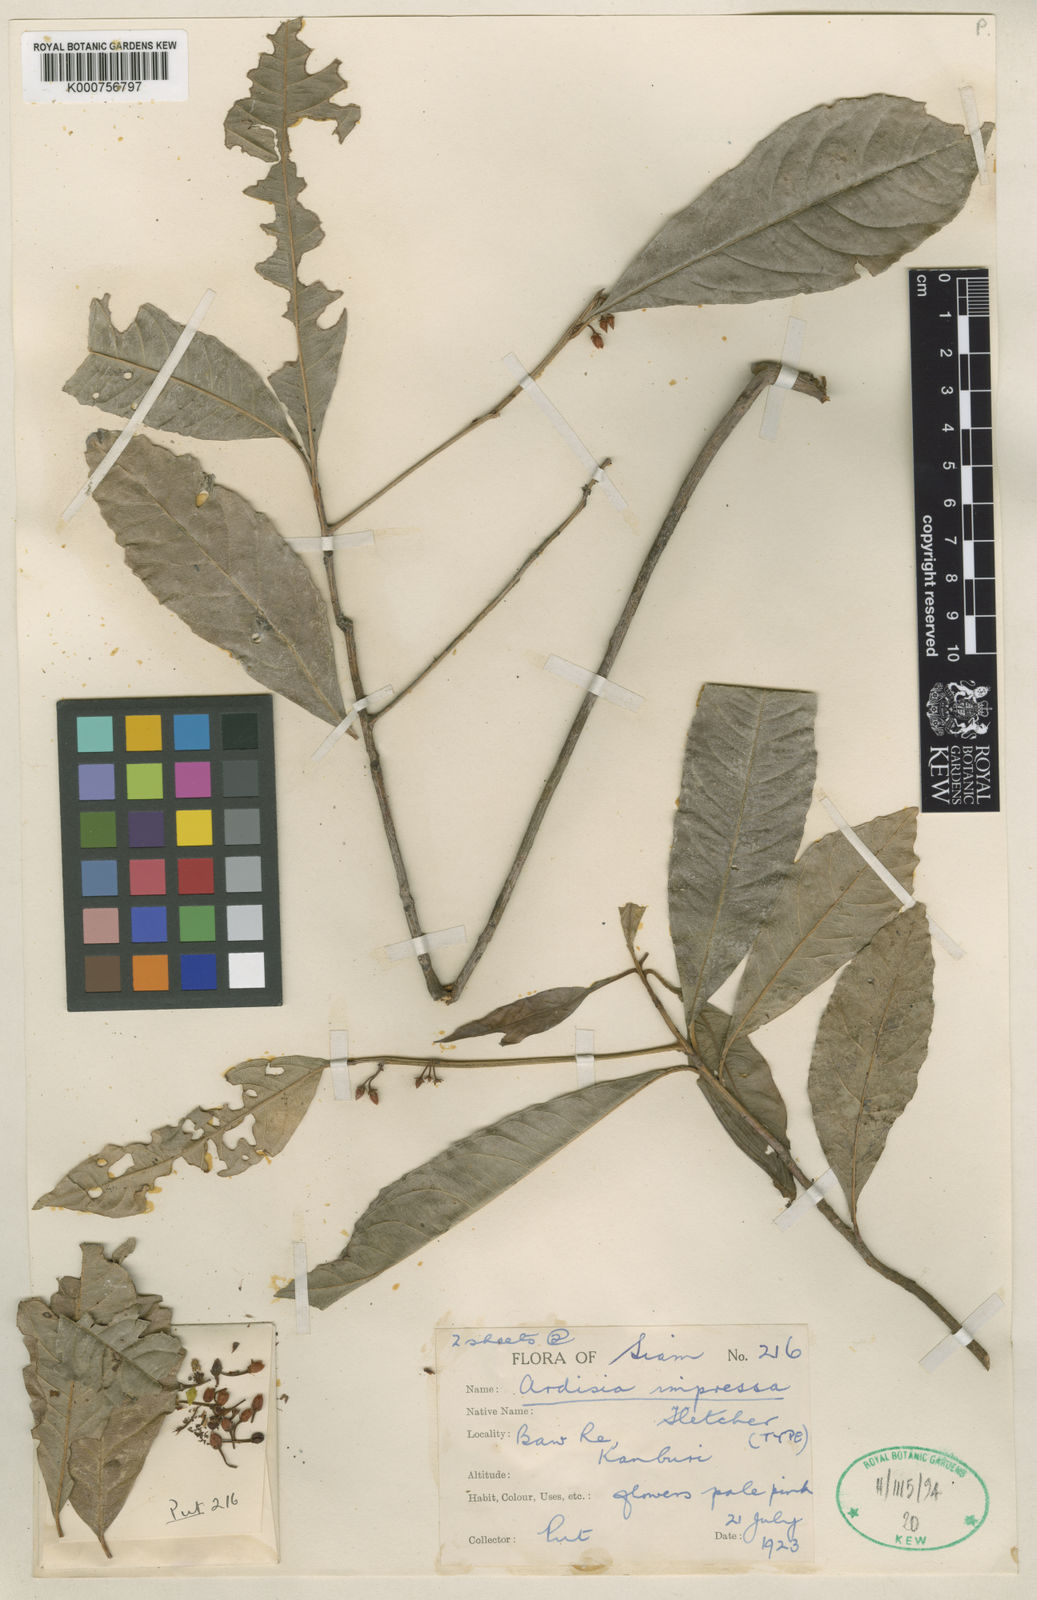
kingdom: Plantae
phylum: Tracheophyta
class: Magnoliopsida
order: Ericales
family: Primulaceae
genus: Ardisia
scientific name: Ardisia impressa
